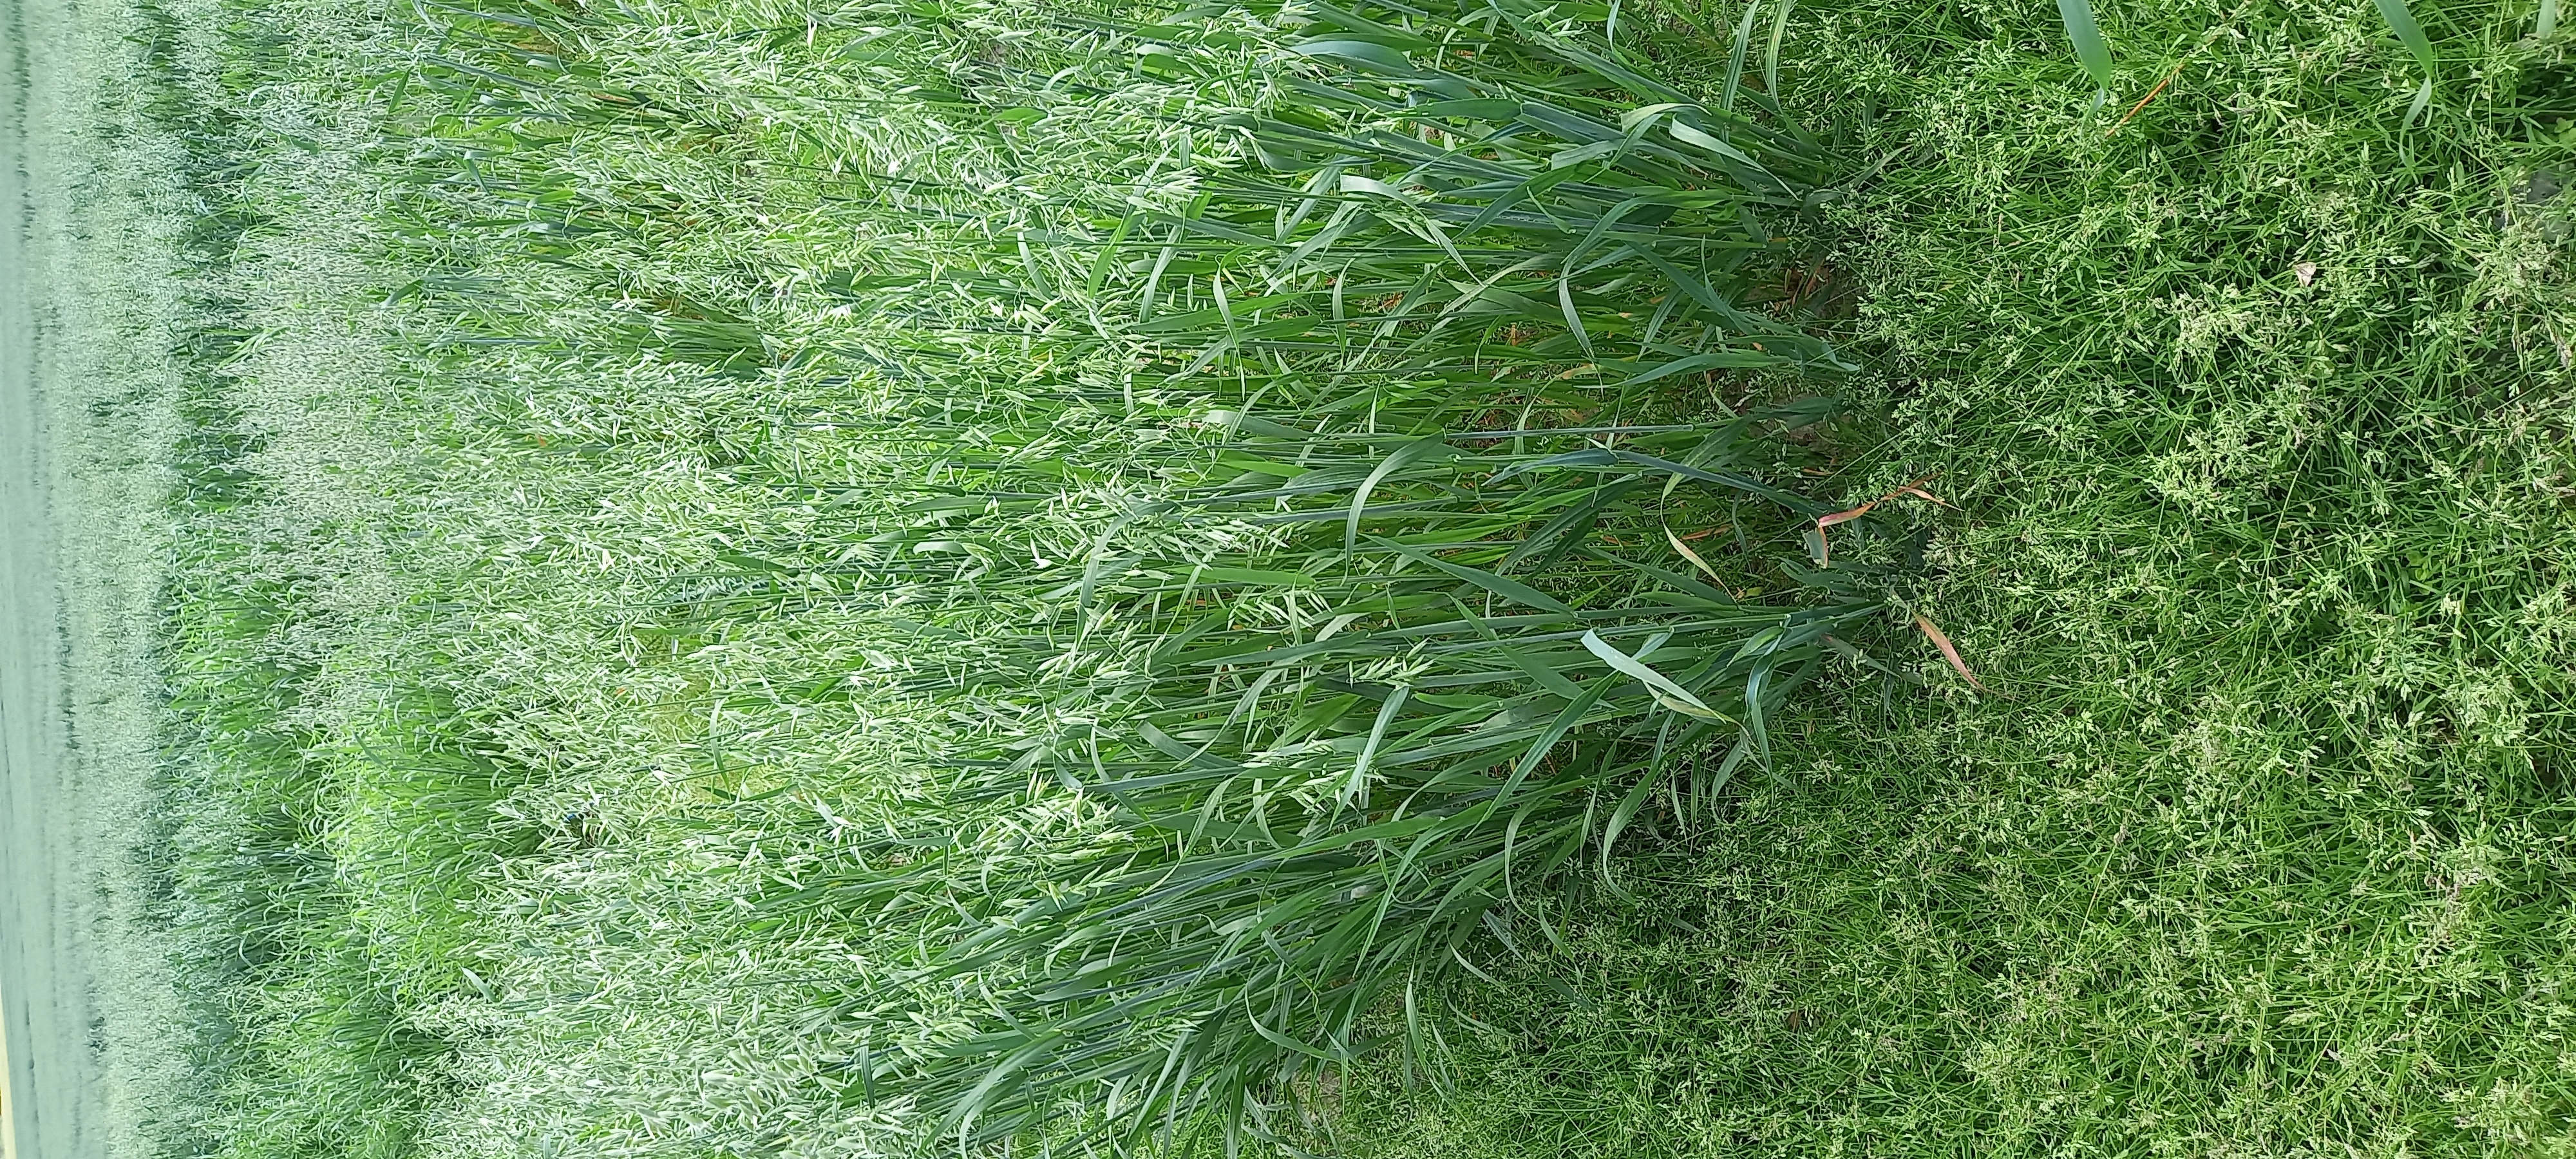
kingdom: Plantae
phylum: Tracheophyta
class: Liliopsida
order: Poales
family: Poaceae
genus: Avena
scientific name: Avena sativa
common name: Oat
